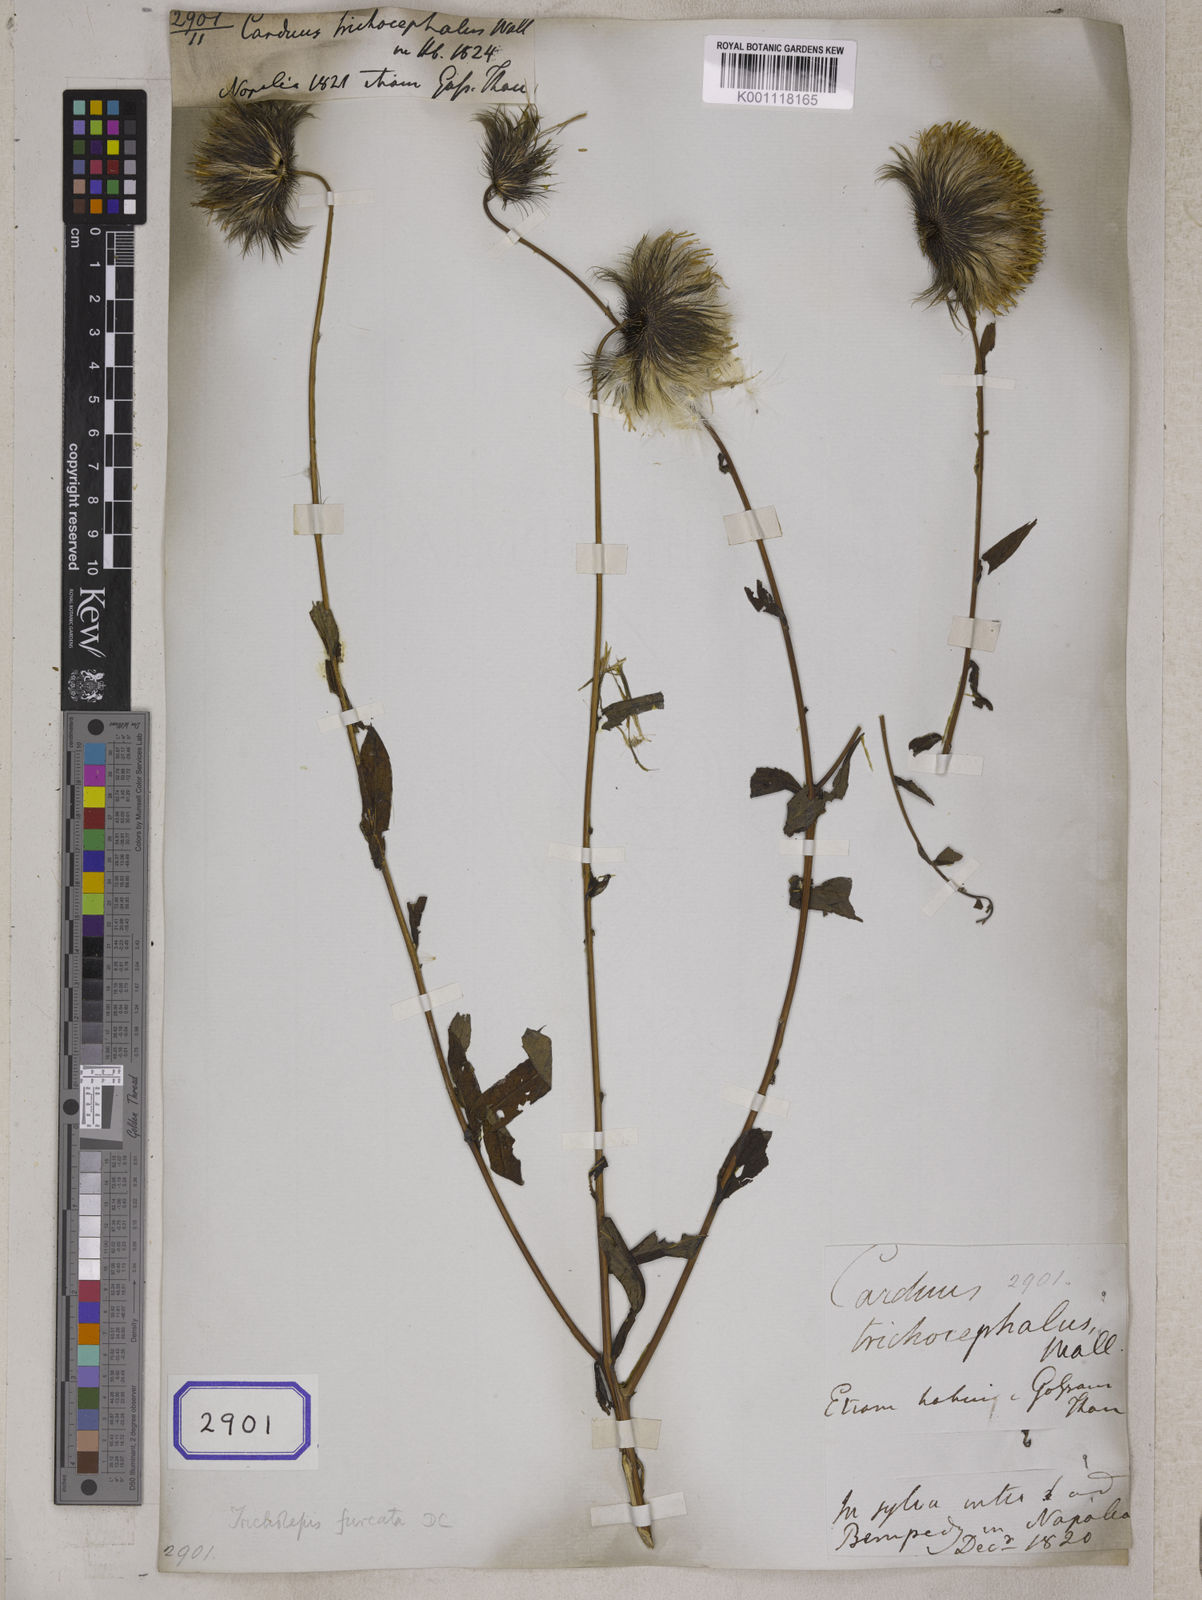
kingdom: Plantae
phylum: Tracheophyta
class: Magnoliopsida
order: Asterales
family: Asteraceae
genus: Tricholepis
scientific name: Tricholepis furcata
